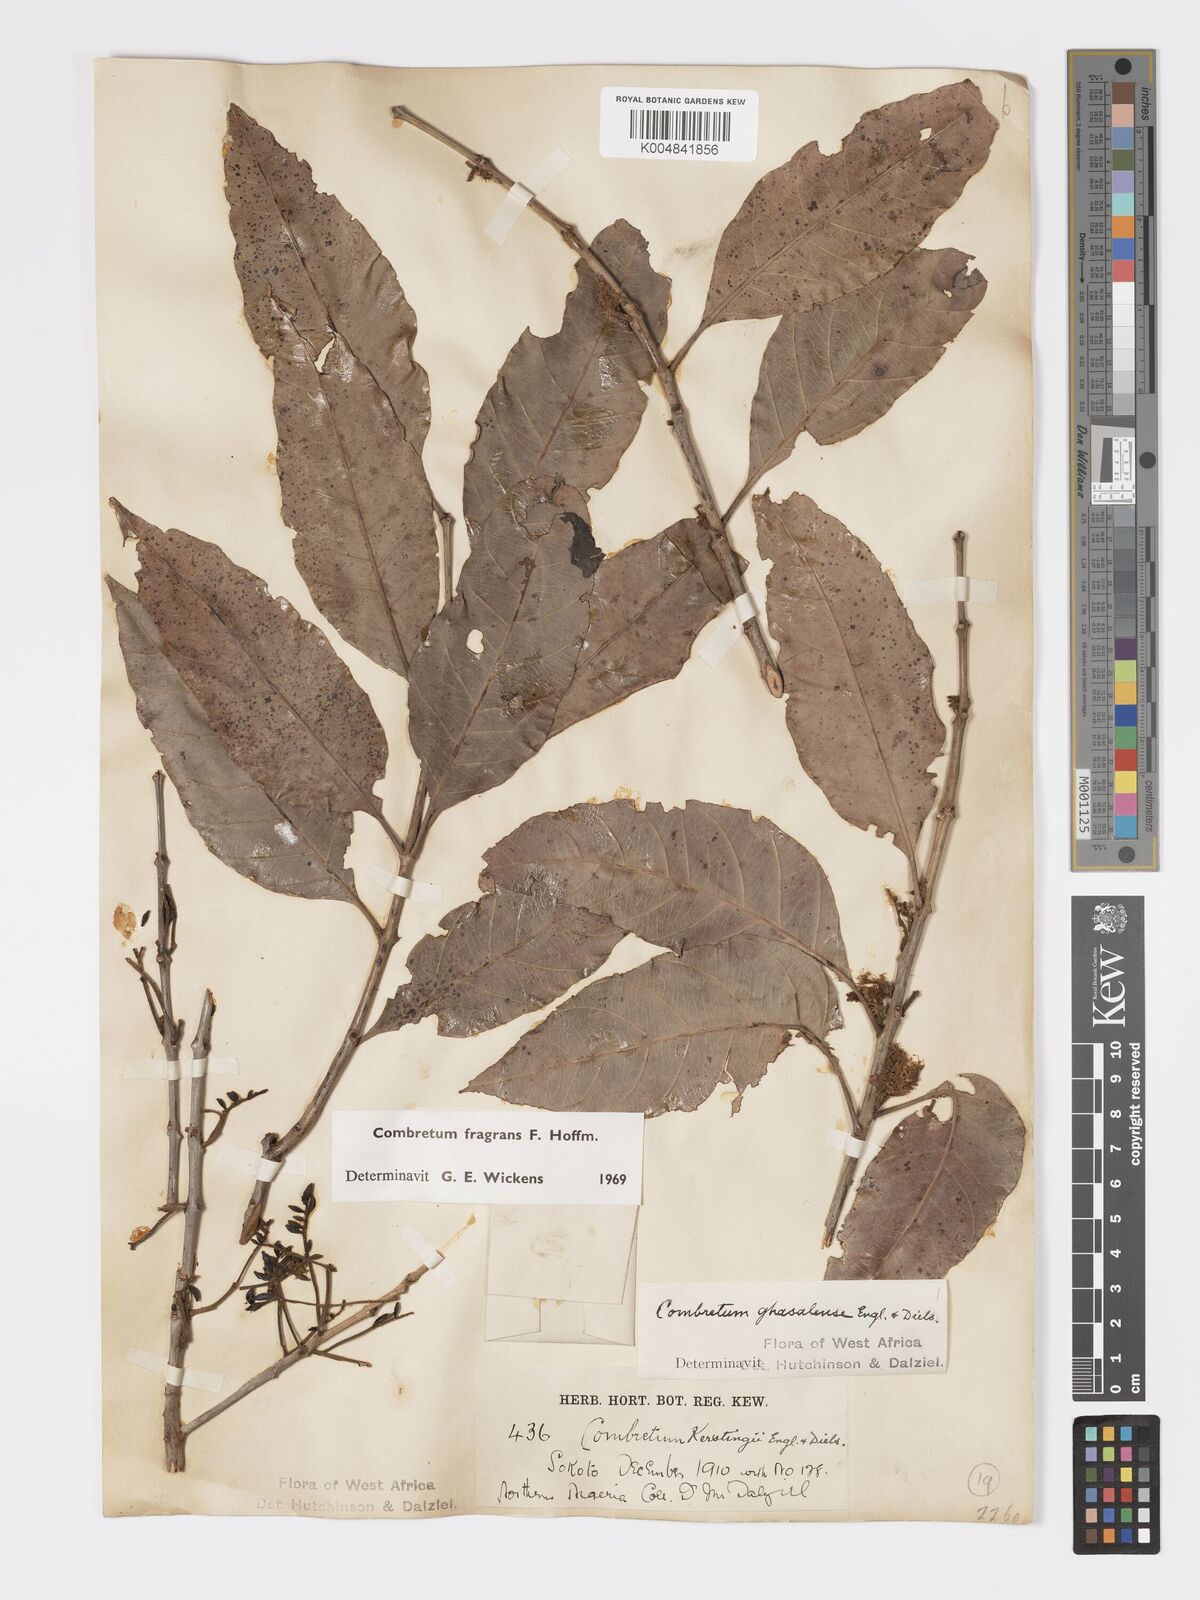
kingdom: Plantae
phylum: Tracheophyta
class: Magnoliopsida
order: Myrtales
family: Combretaceae
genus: Combretum
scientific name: Combretum adenogonium
